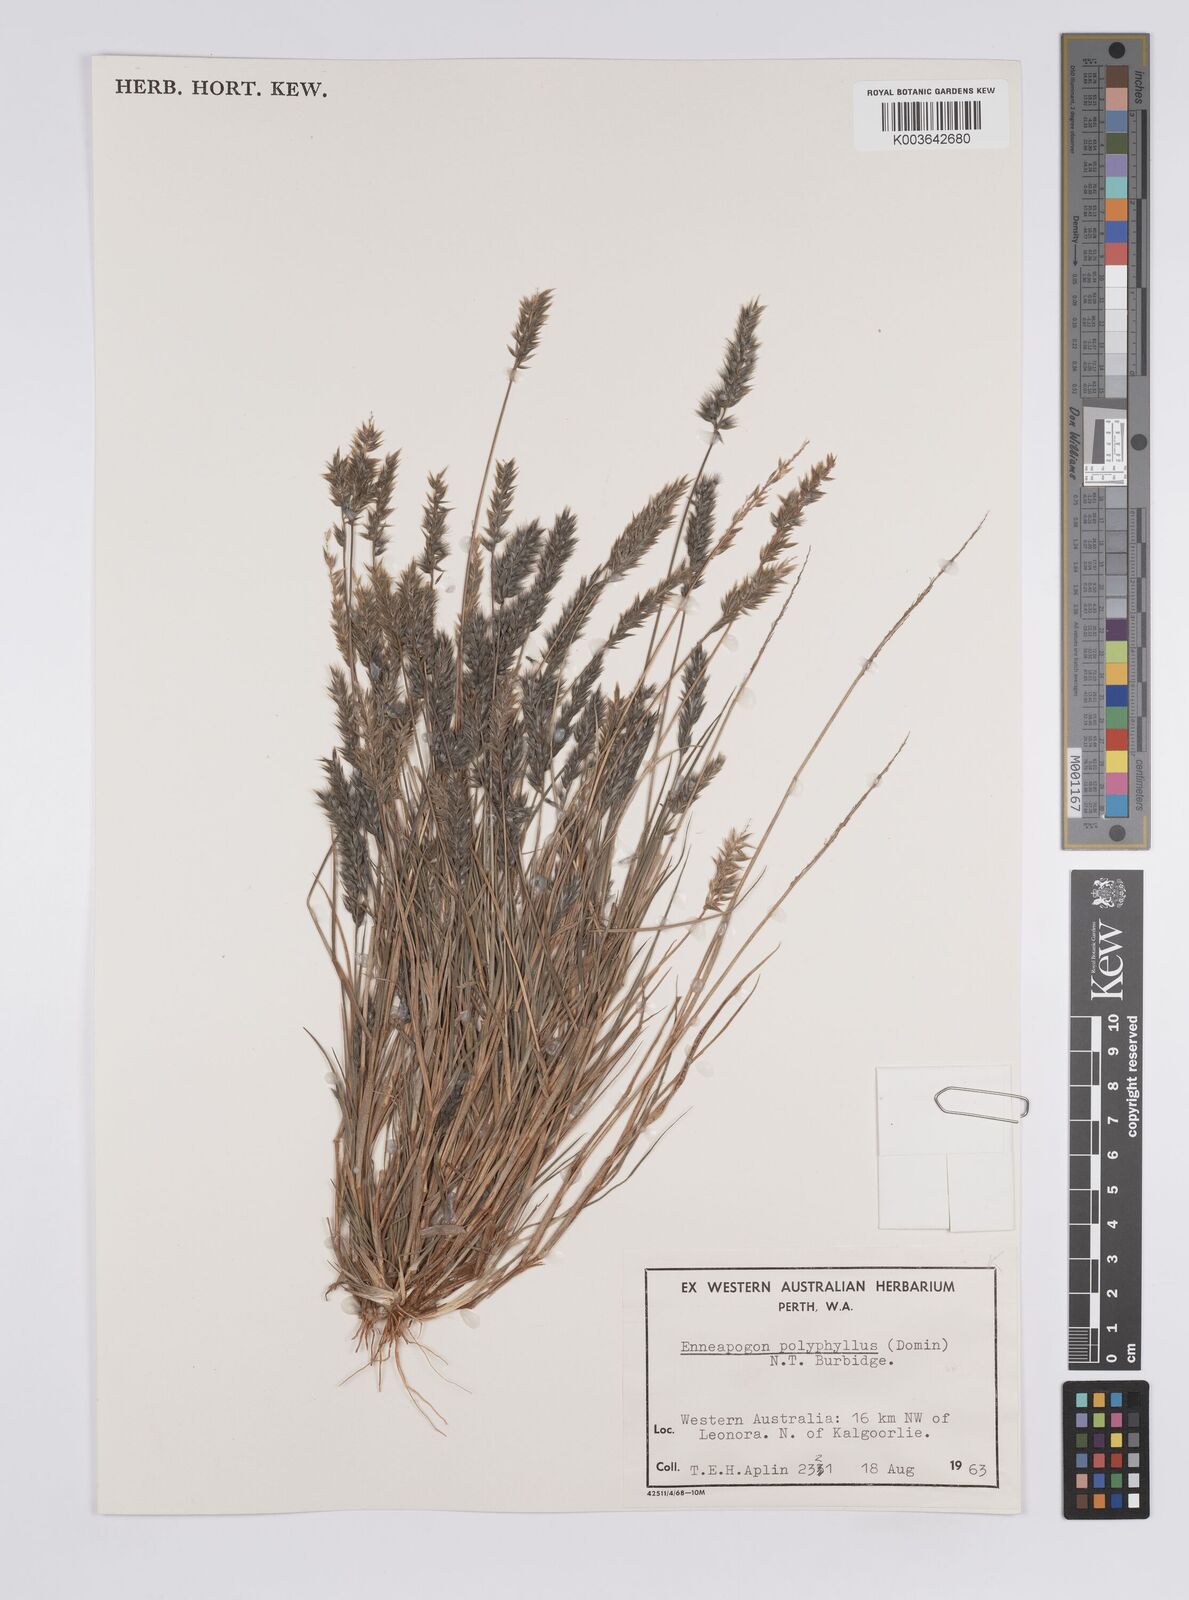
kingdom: Plantae
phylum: Tracheophyta
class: Liliopsida
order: Poales
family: Poaceae
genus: Enneapogon
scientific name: Enneapogon polyphyllus
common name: Leafy nineawn
